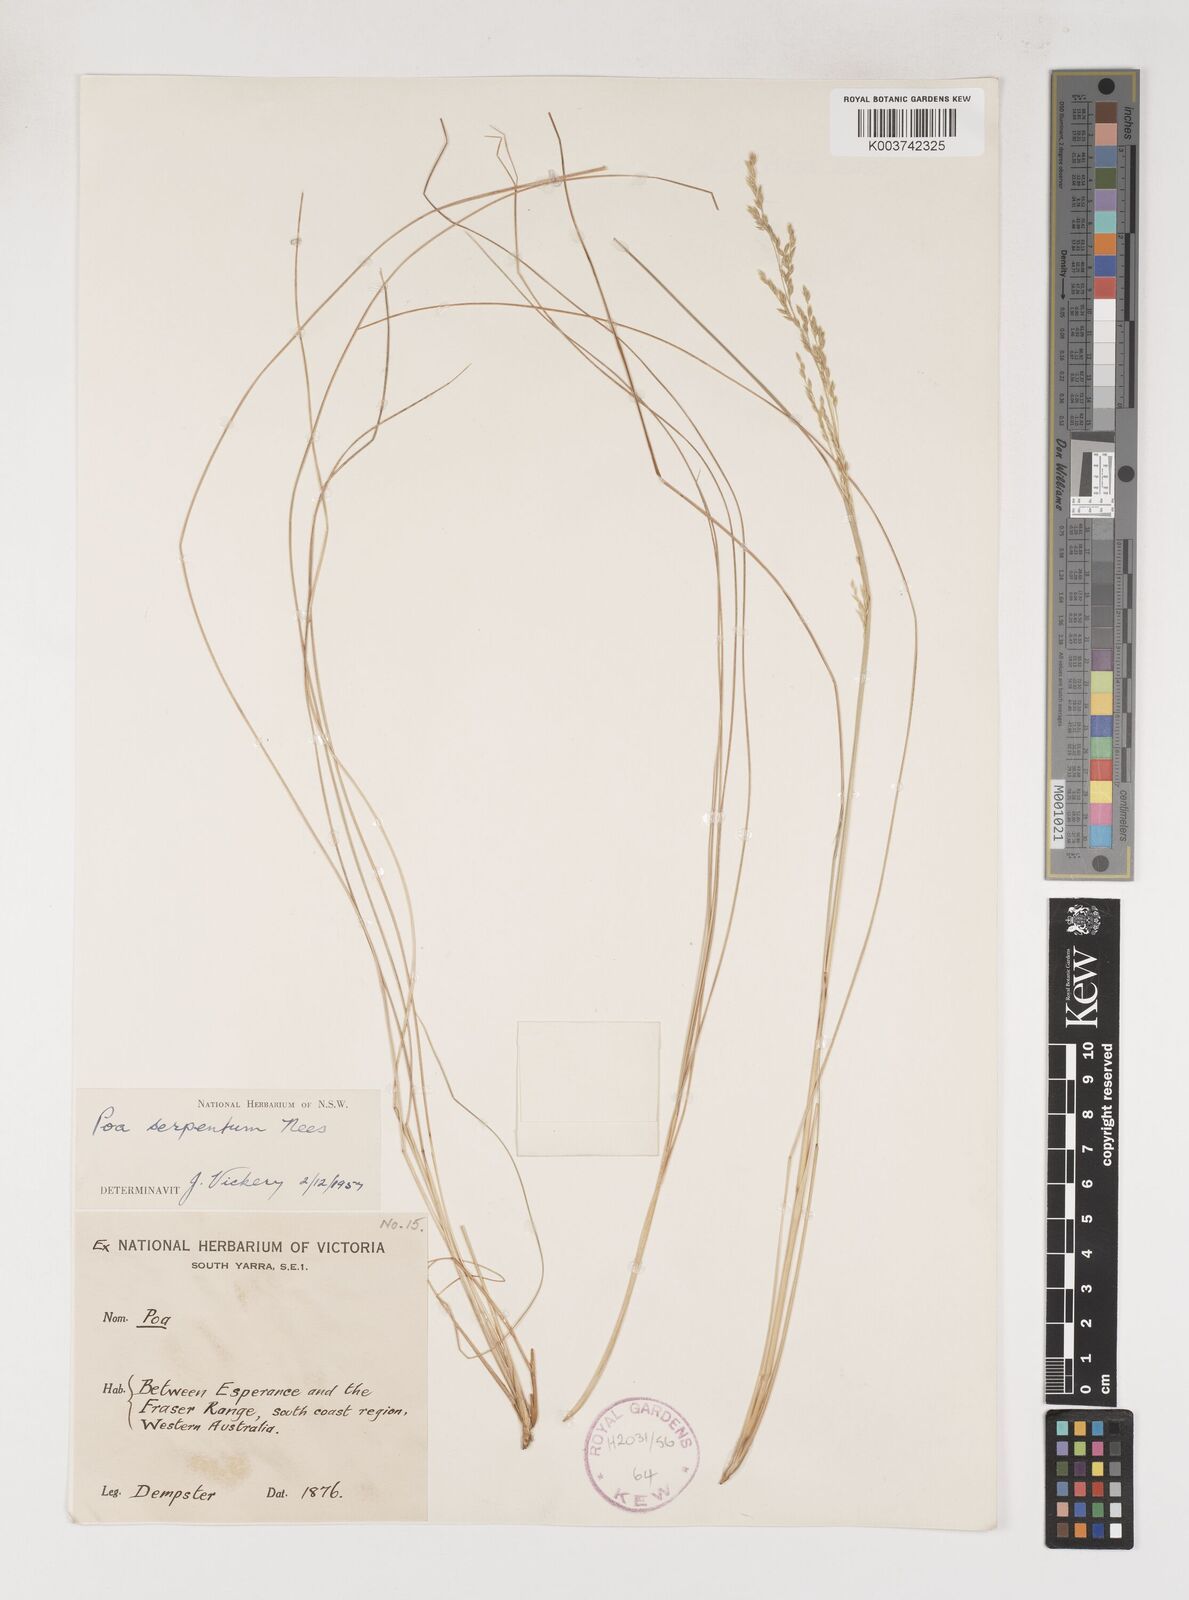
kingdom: Plantae
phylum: Tracheophyta
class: Liliopsida
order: Poales
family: Poaceae
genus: Poa
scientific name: Poa porphyroclados
